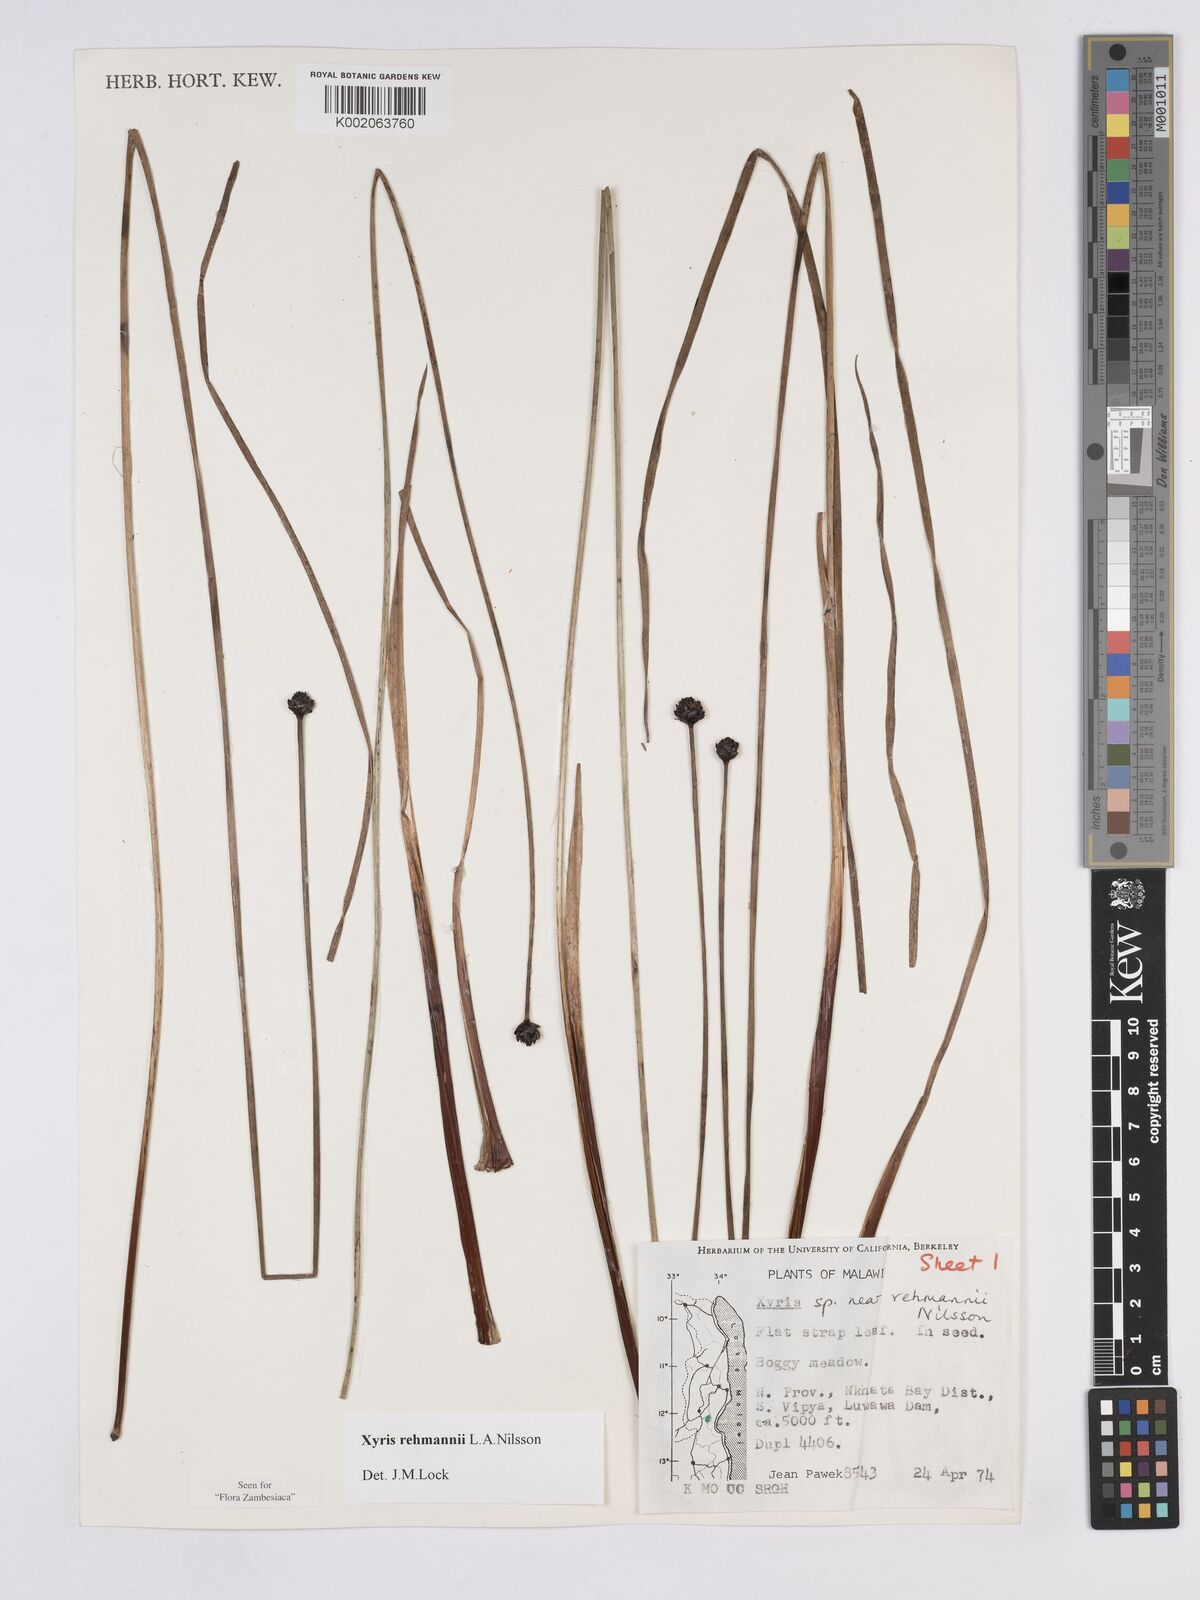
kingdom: Plantae
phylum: Tracheophyta
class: Liliopsida
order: Poales
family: Xyridaceae
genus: Xyris
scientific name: Xyris rehmannii
